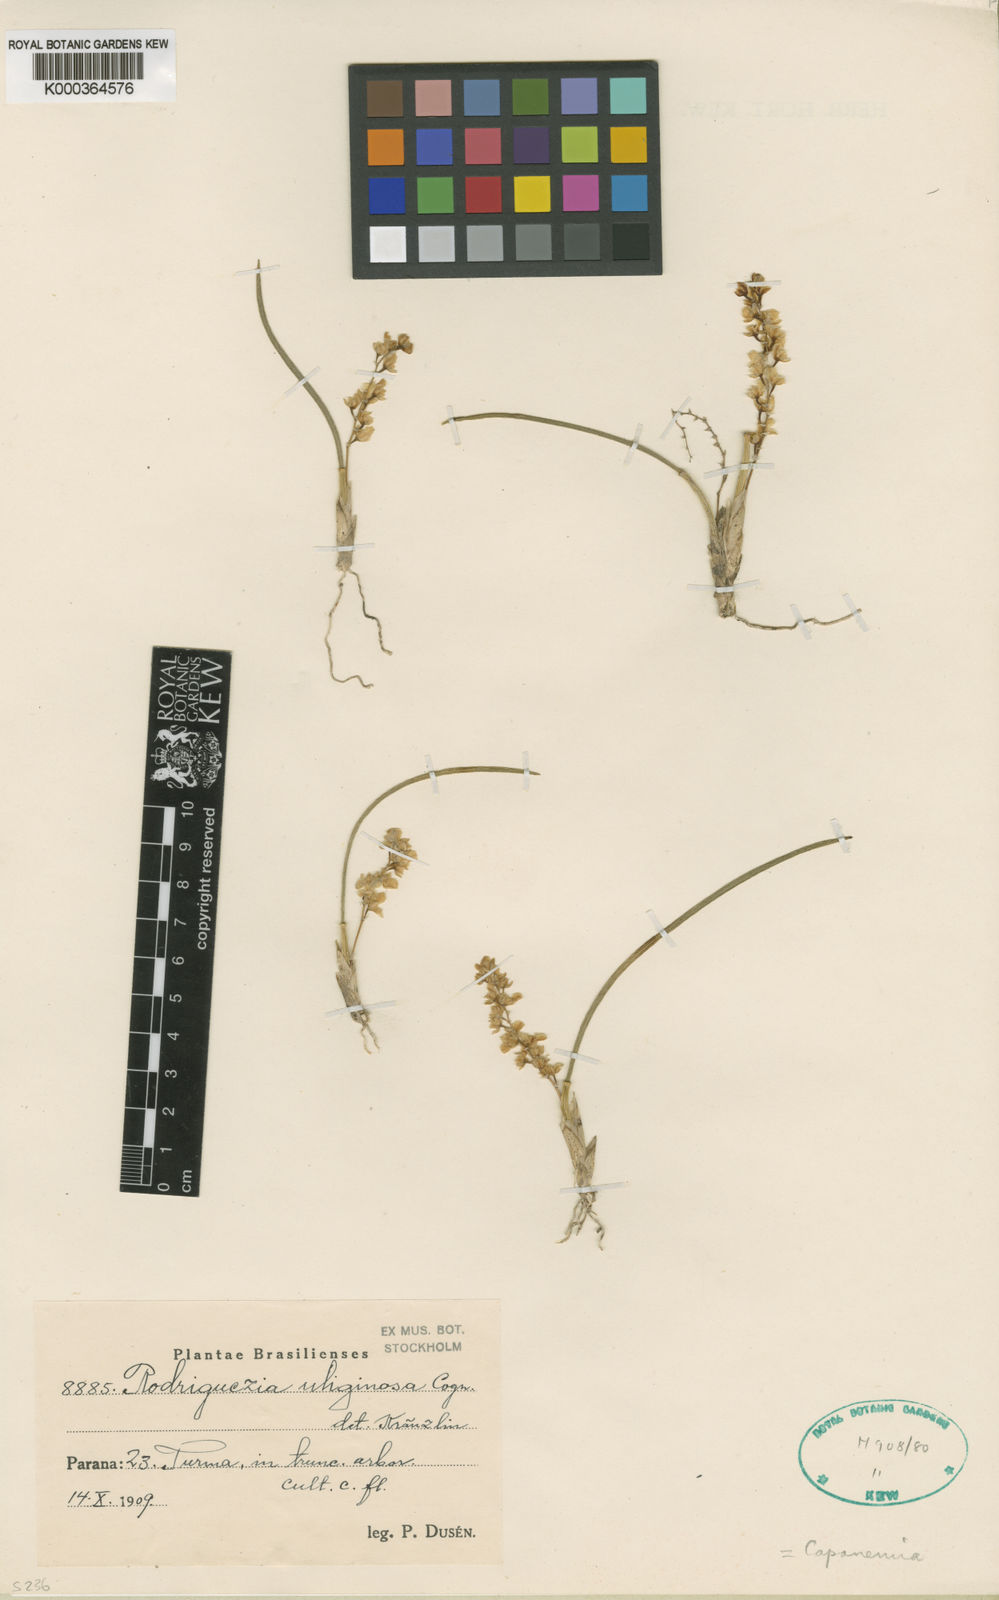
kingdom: Plantae
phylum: Tracheophyta
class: Liliopsida
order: Asparagales
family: Orchidaceae
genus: Capanemia
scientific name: Capanemia superflua
